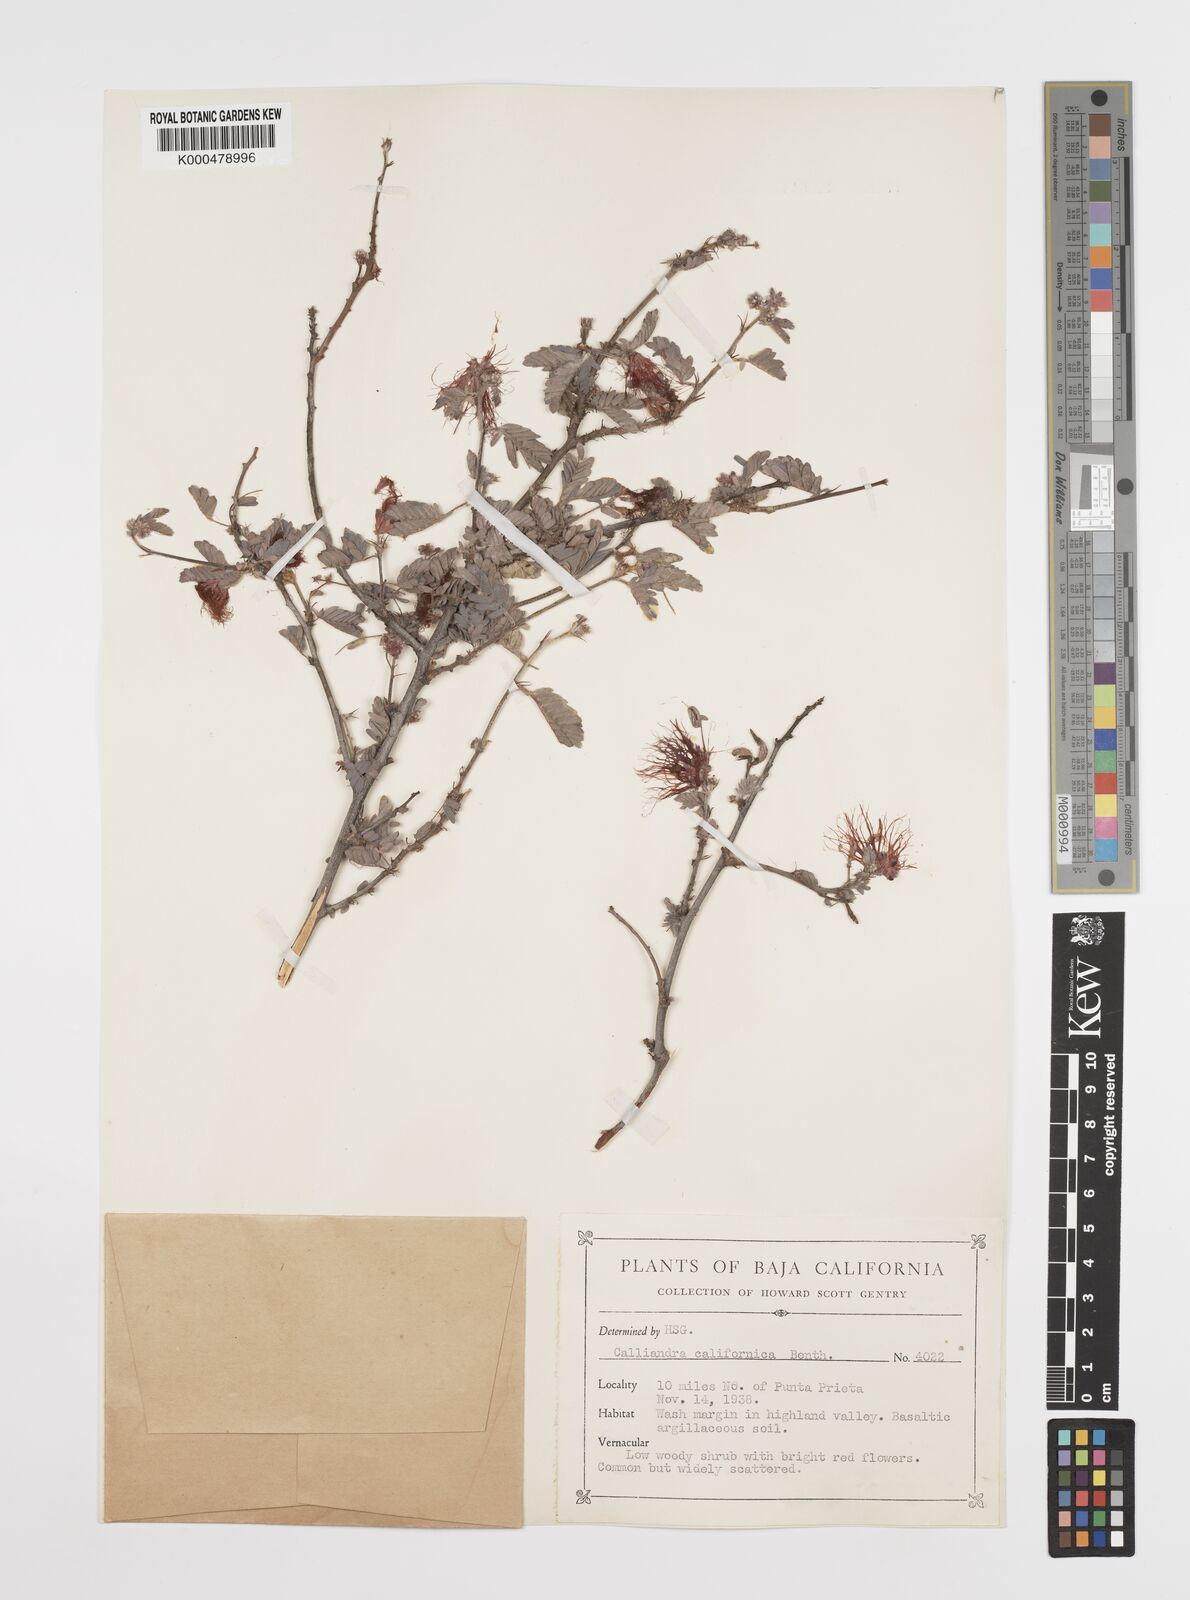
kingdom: Plantae
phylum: Tracheophyta
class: Magnoliopsida
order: Fabales
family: Fabaceae
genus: Calliandra
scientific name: Calliandra californica
